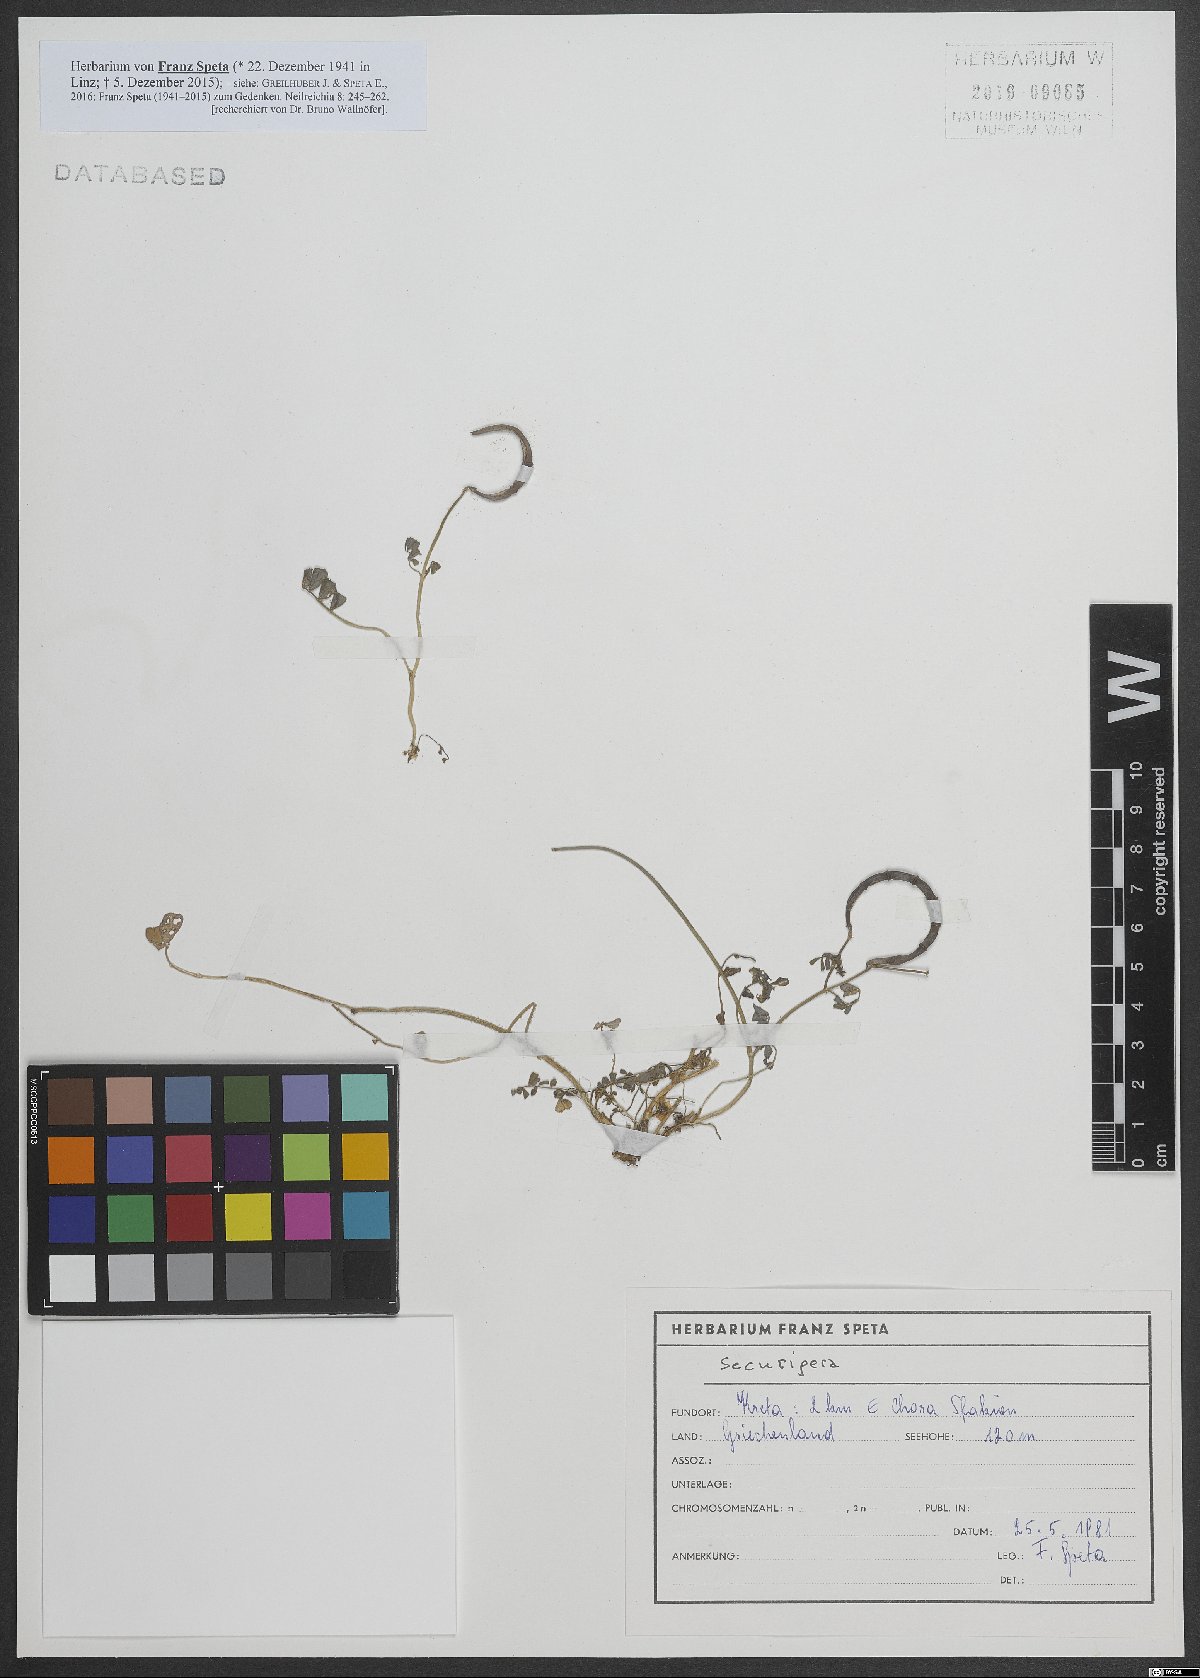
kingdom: Animalia
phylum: Arthropoda
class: Insecta
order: Orthoptera
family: Romaleidae
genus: Securigera
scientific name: Securigera
